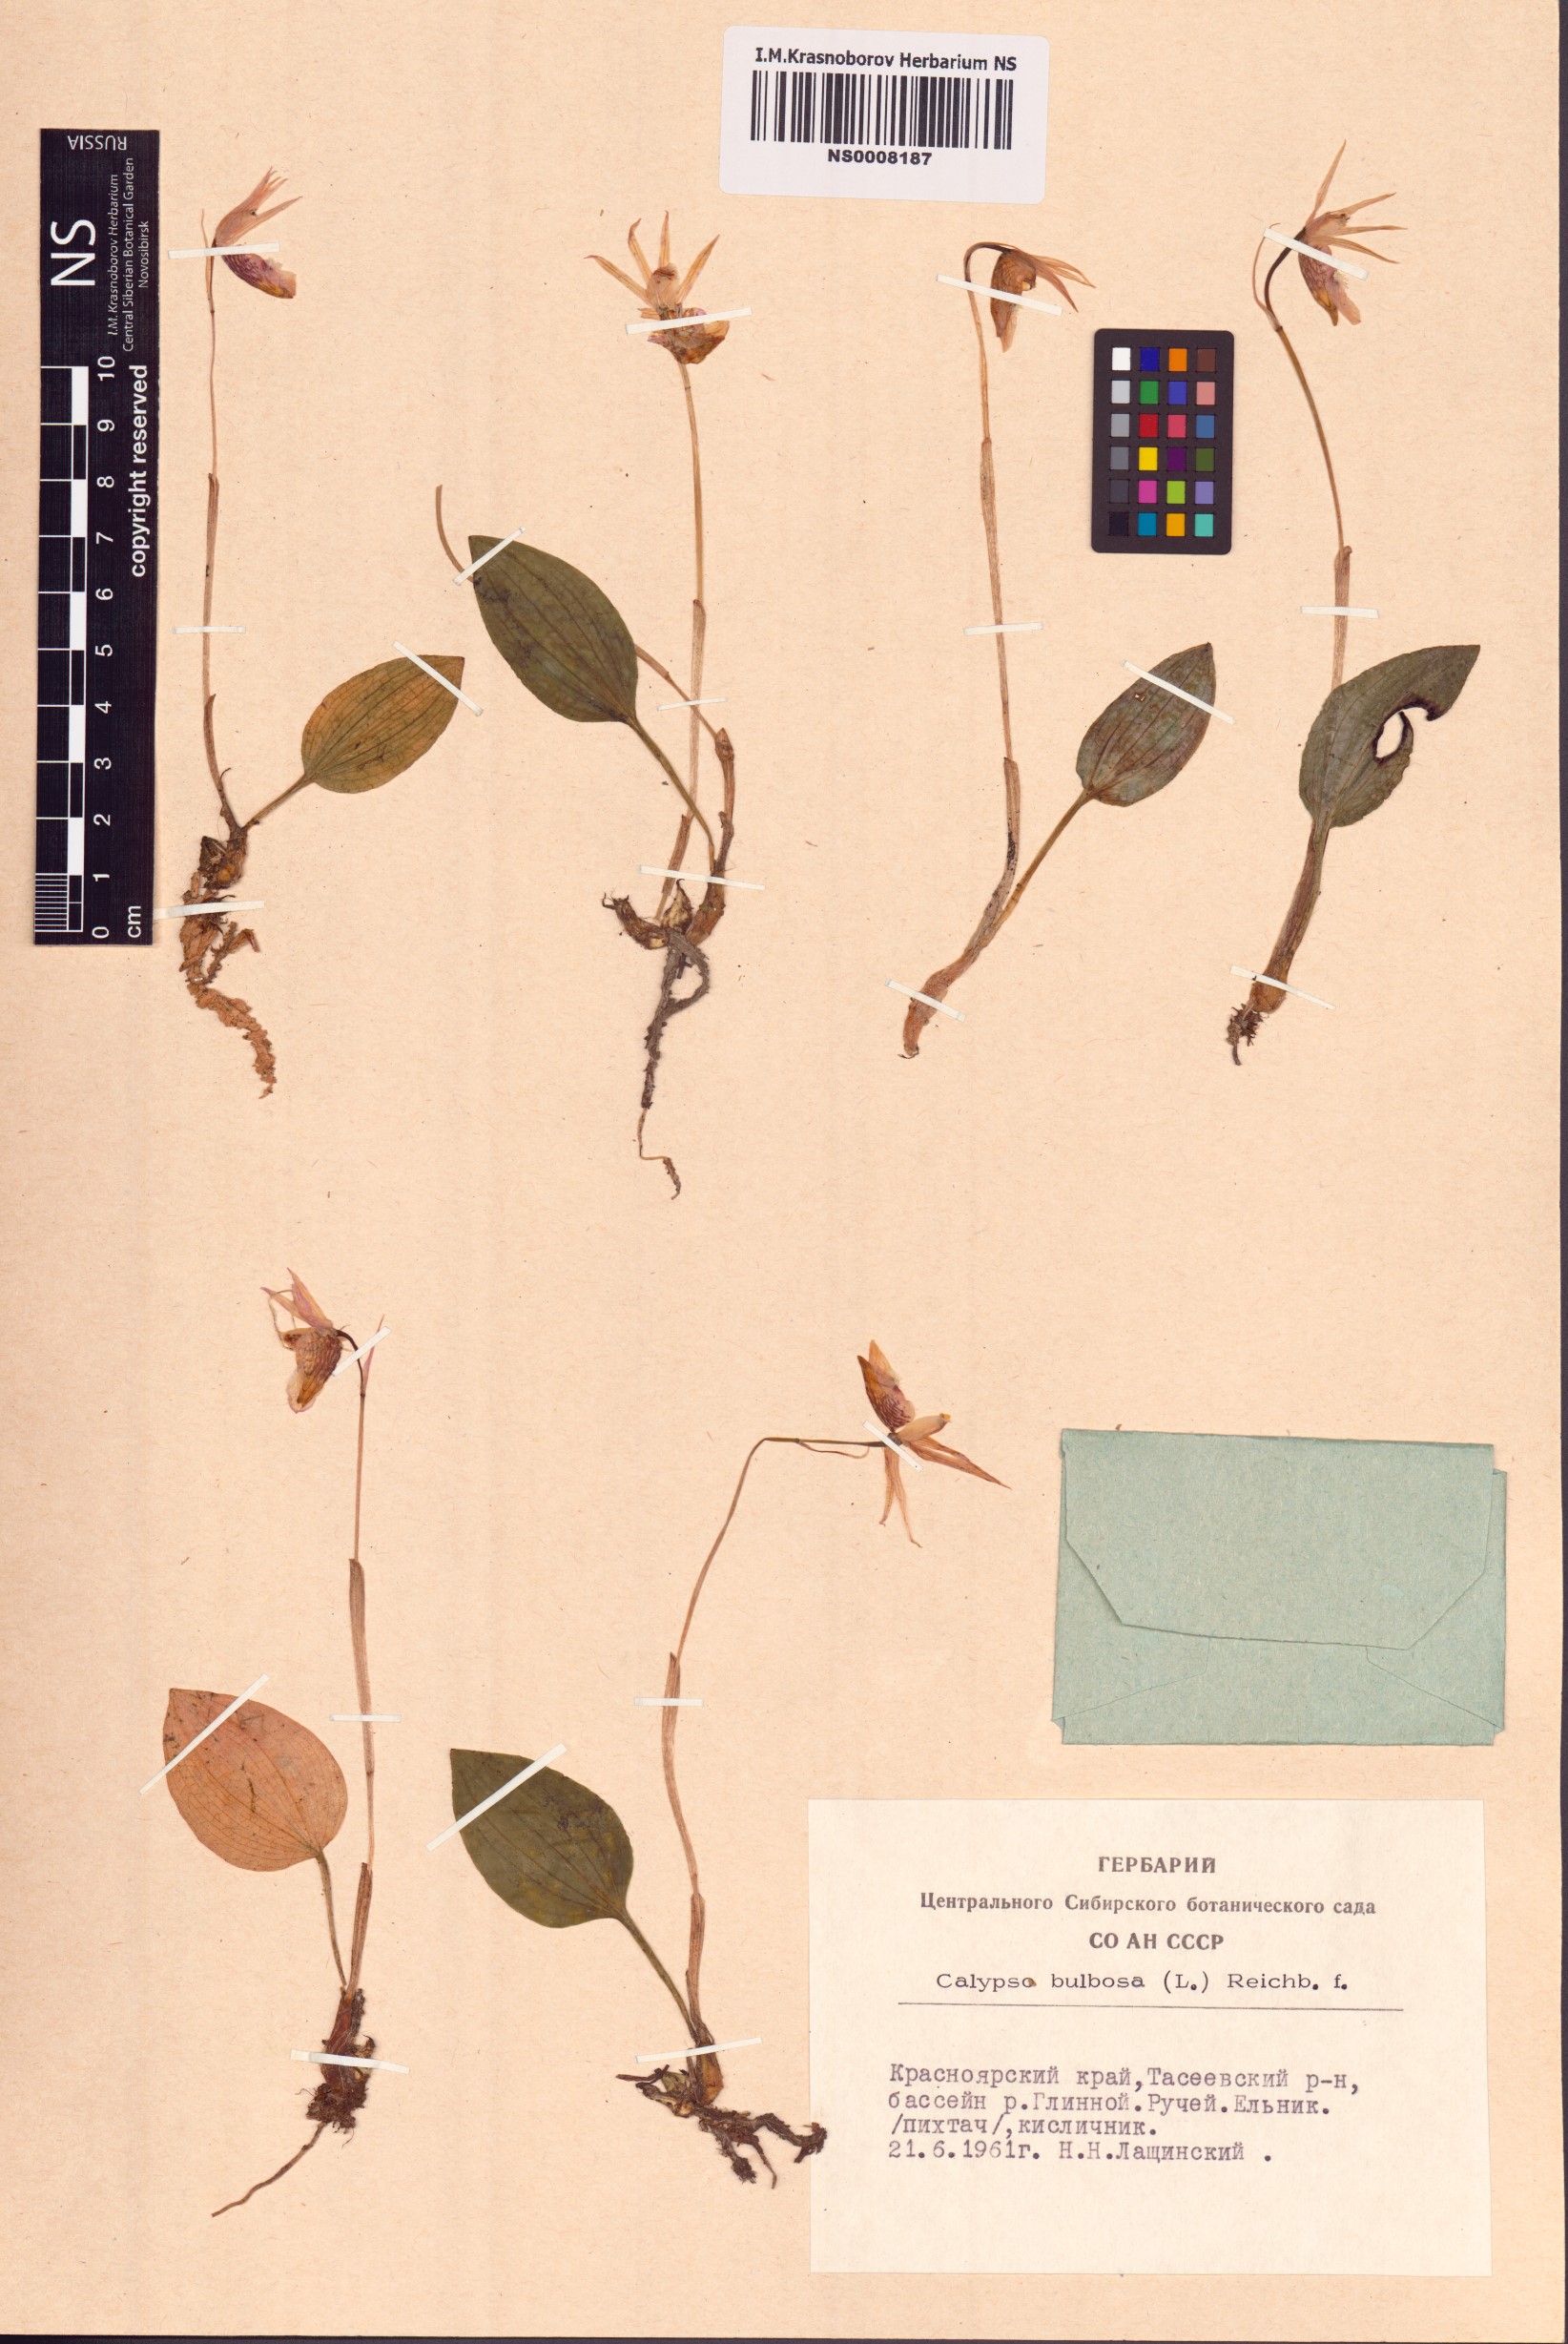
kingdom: Plantae
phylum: Tracheophyta
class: Liliopsida
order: Asparagales
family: Orchidaceae
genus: Calypso
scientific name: Calypso bulbosa
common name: Calypso
